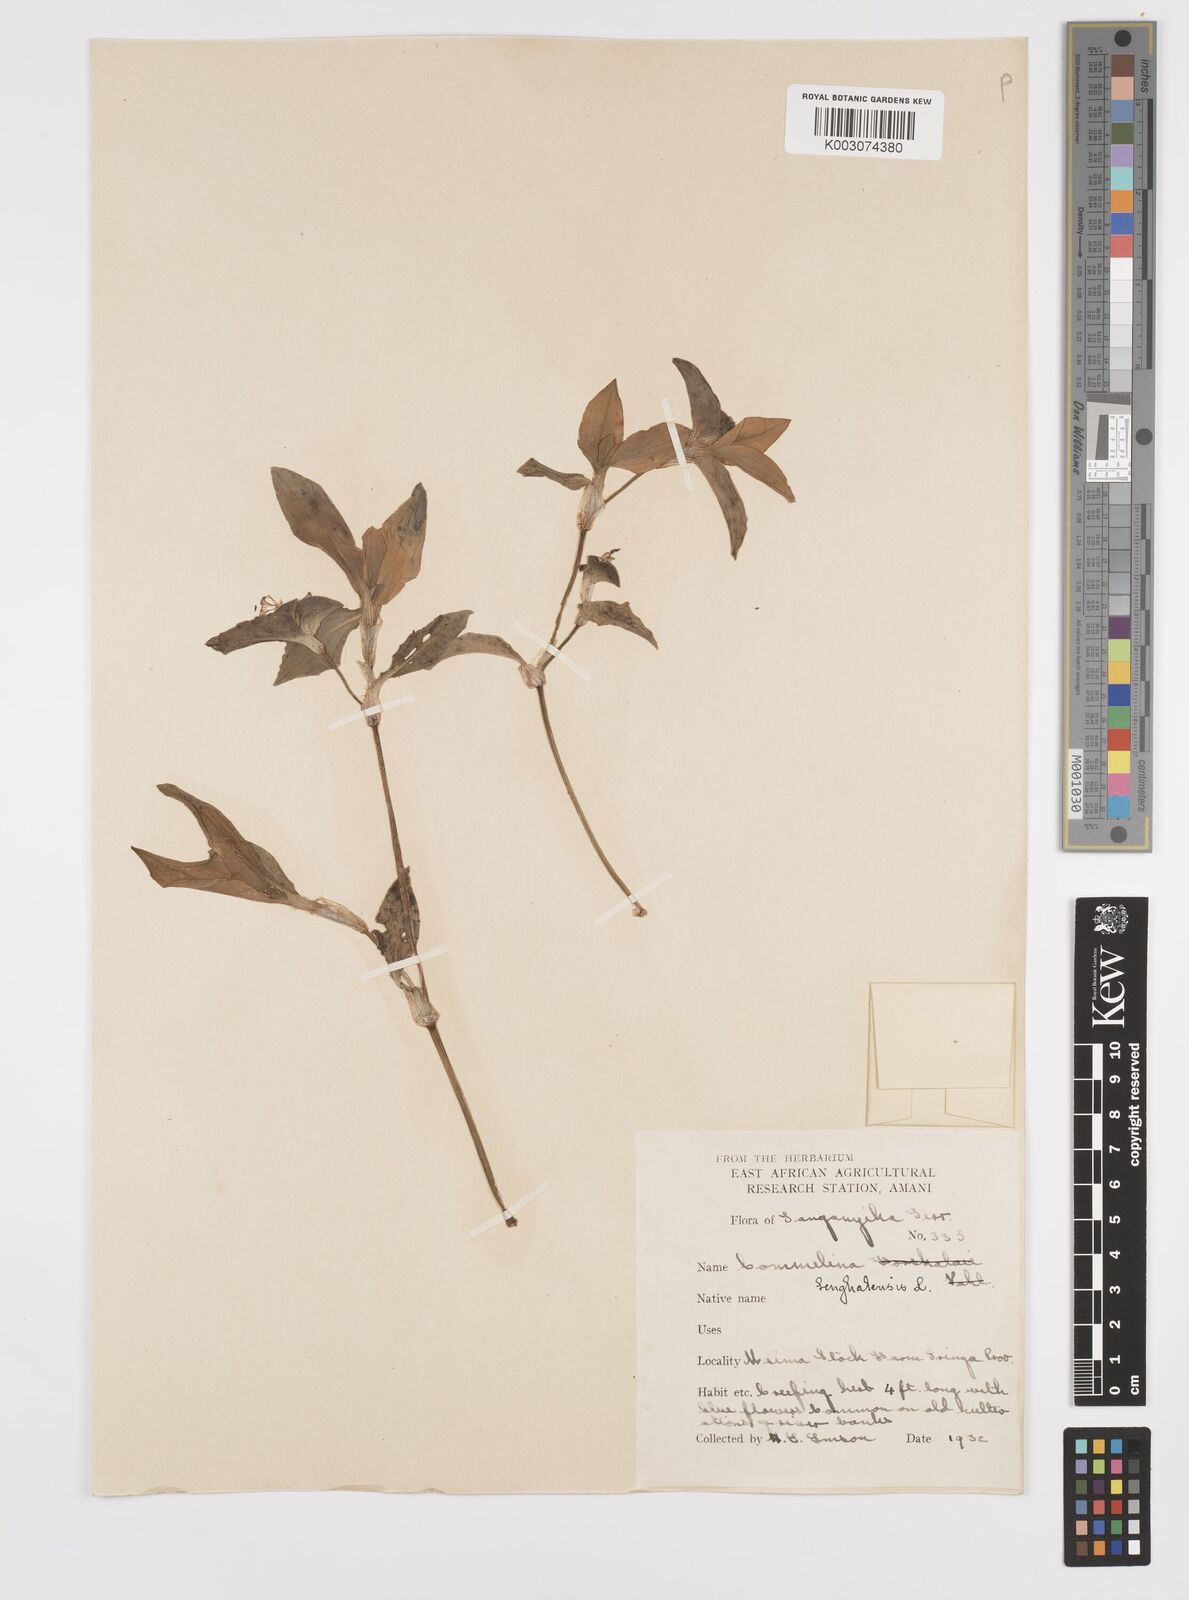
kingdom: Plantae
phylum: Tracheophyta
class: Liliopsida
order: Commelinales
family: Commelinaceae
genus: Commelina
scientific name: Commelina benghalensis
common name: Jio
